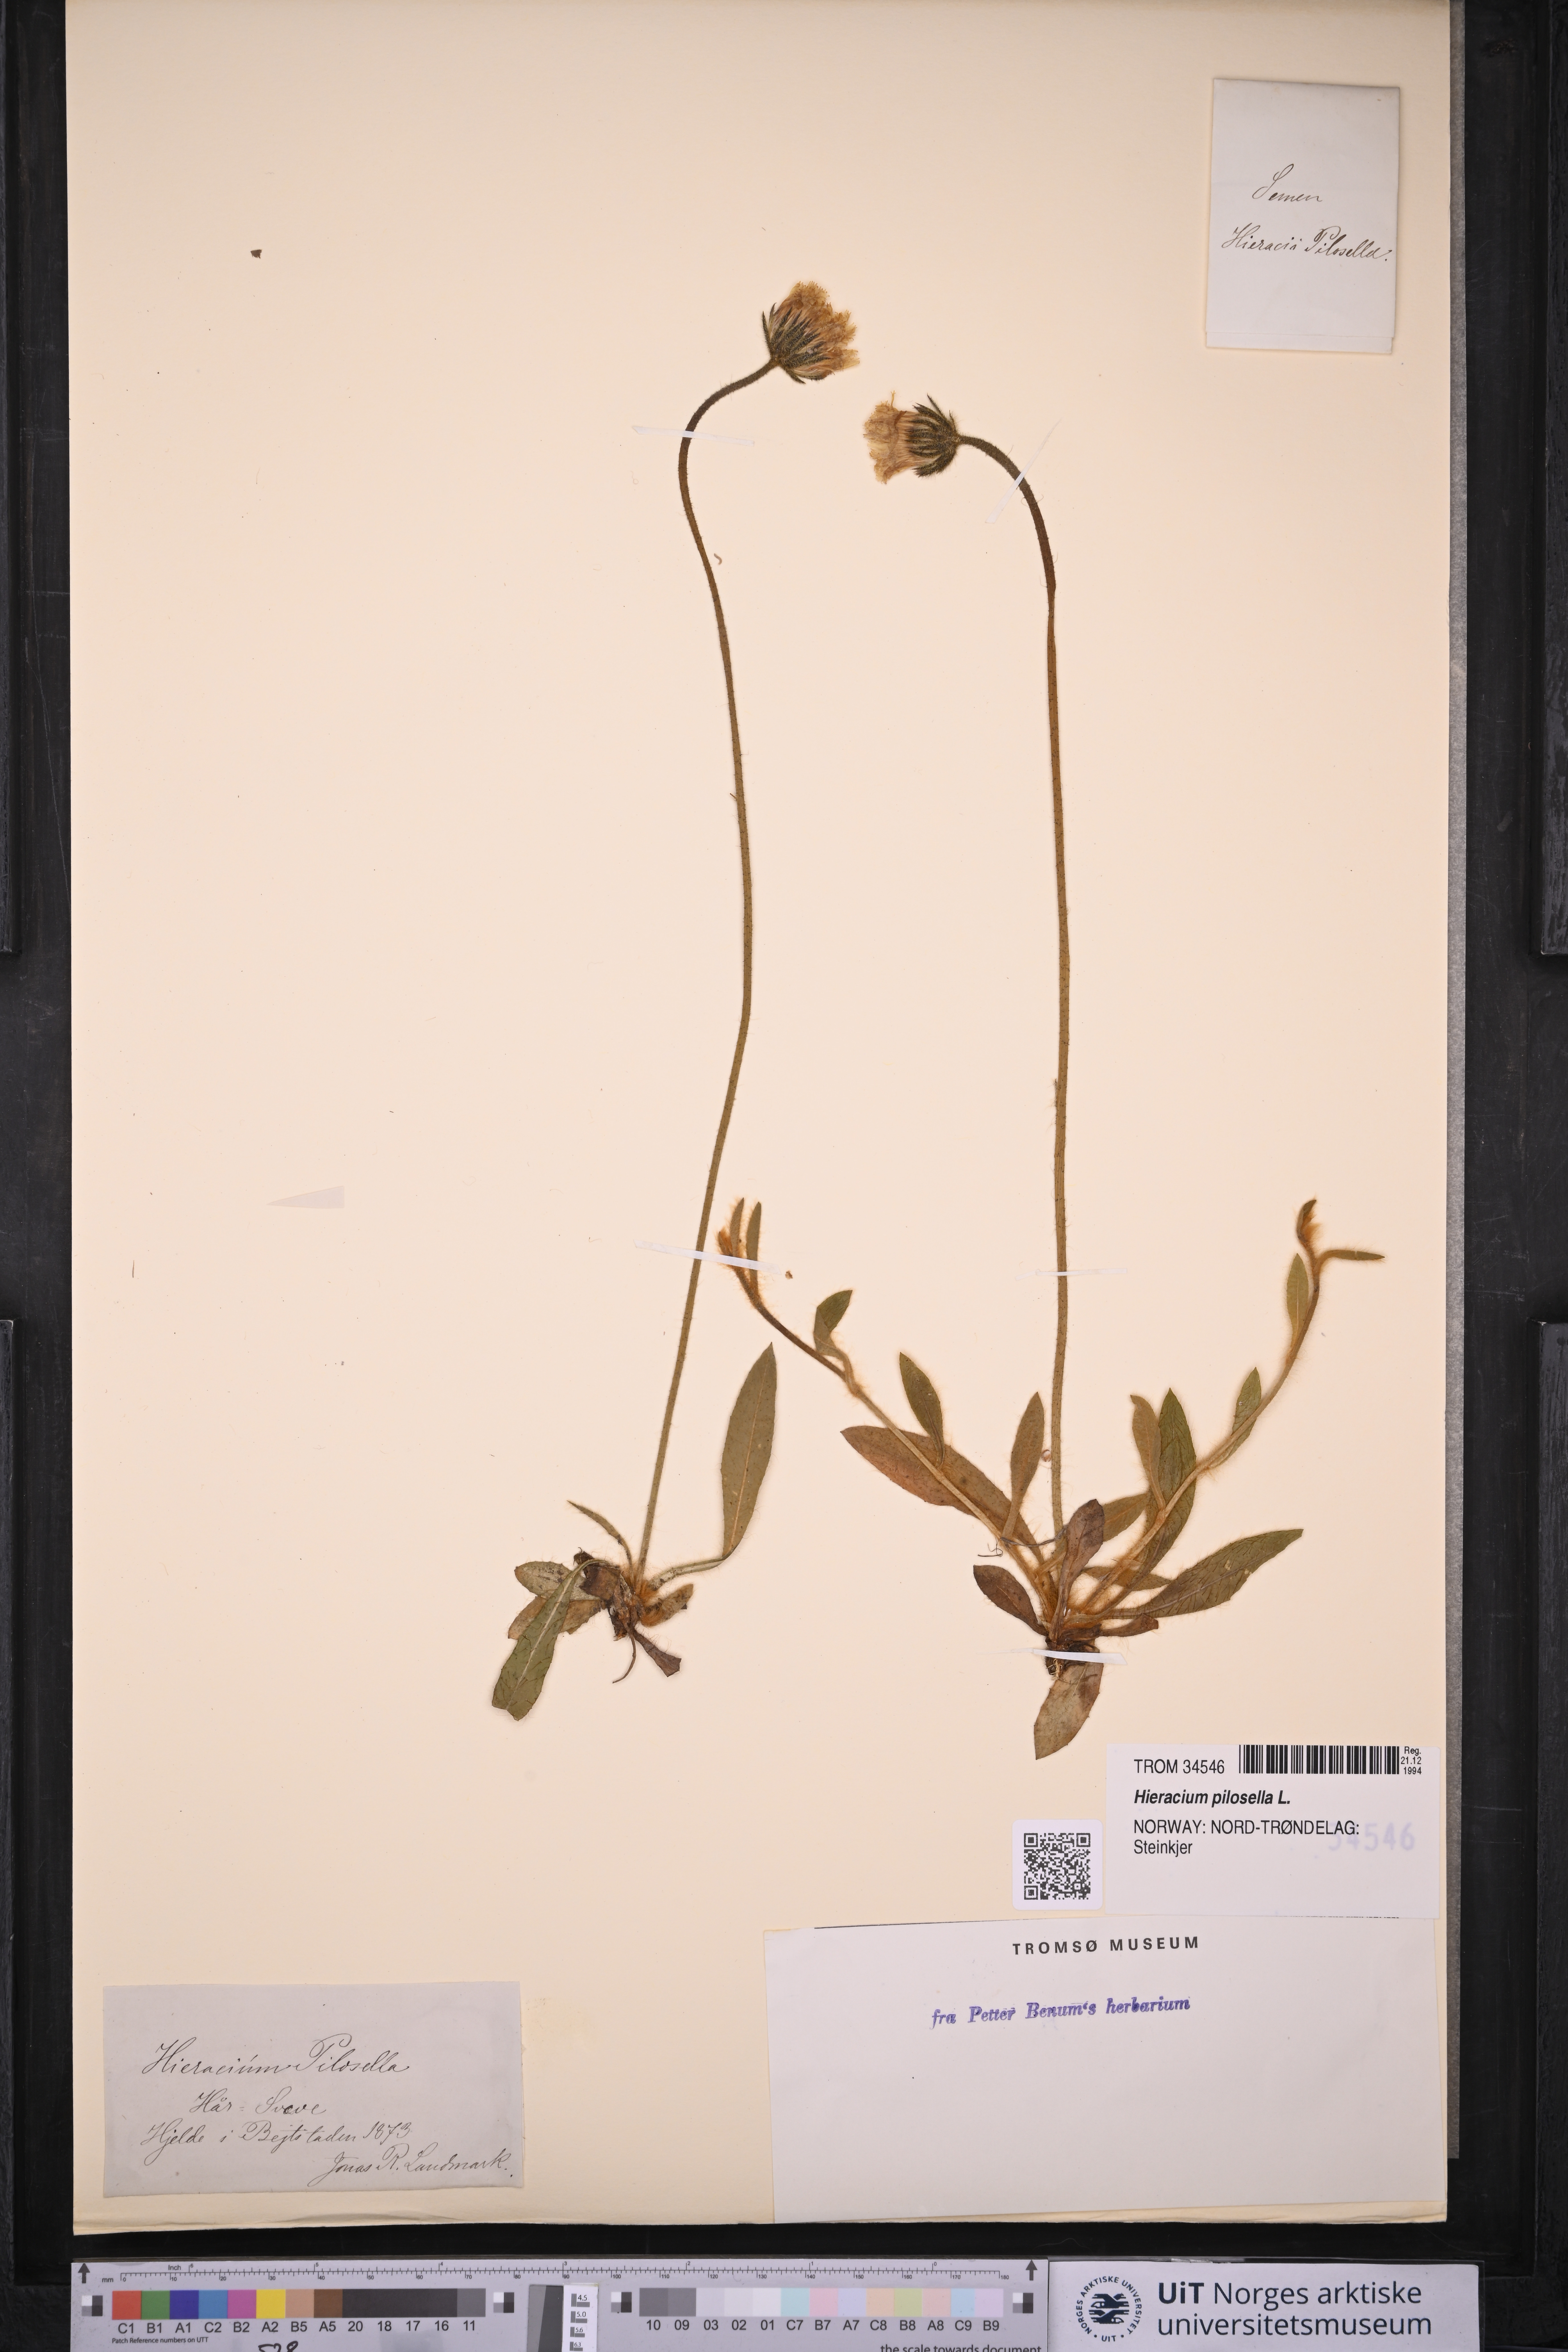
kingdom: Plantae
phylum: Tracheophyta
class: Magnoliopsida
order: Asterales
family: Asteraceae
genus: Pilosella
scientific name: Pilosella officinarum
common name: Mouse-ear hawkweed
